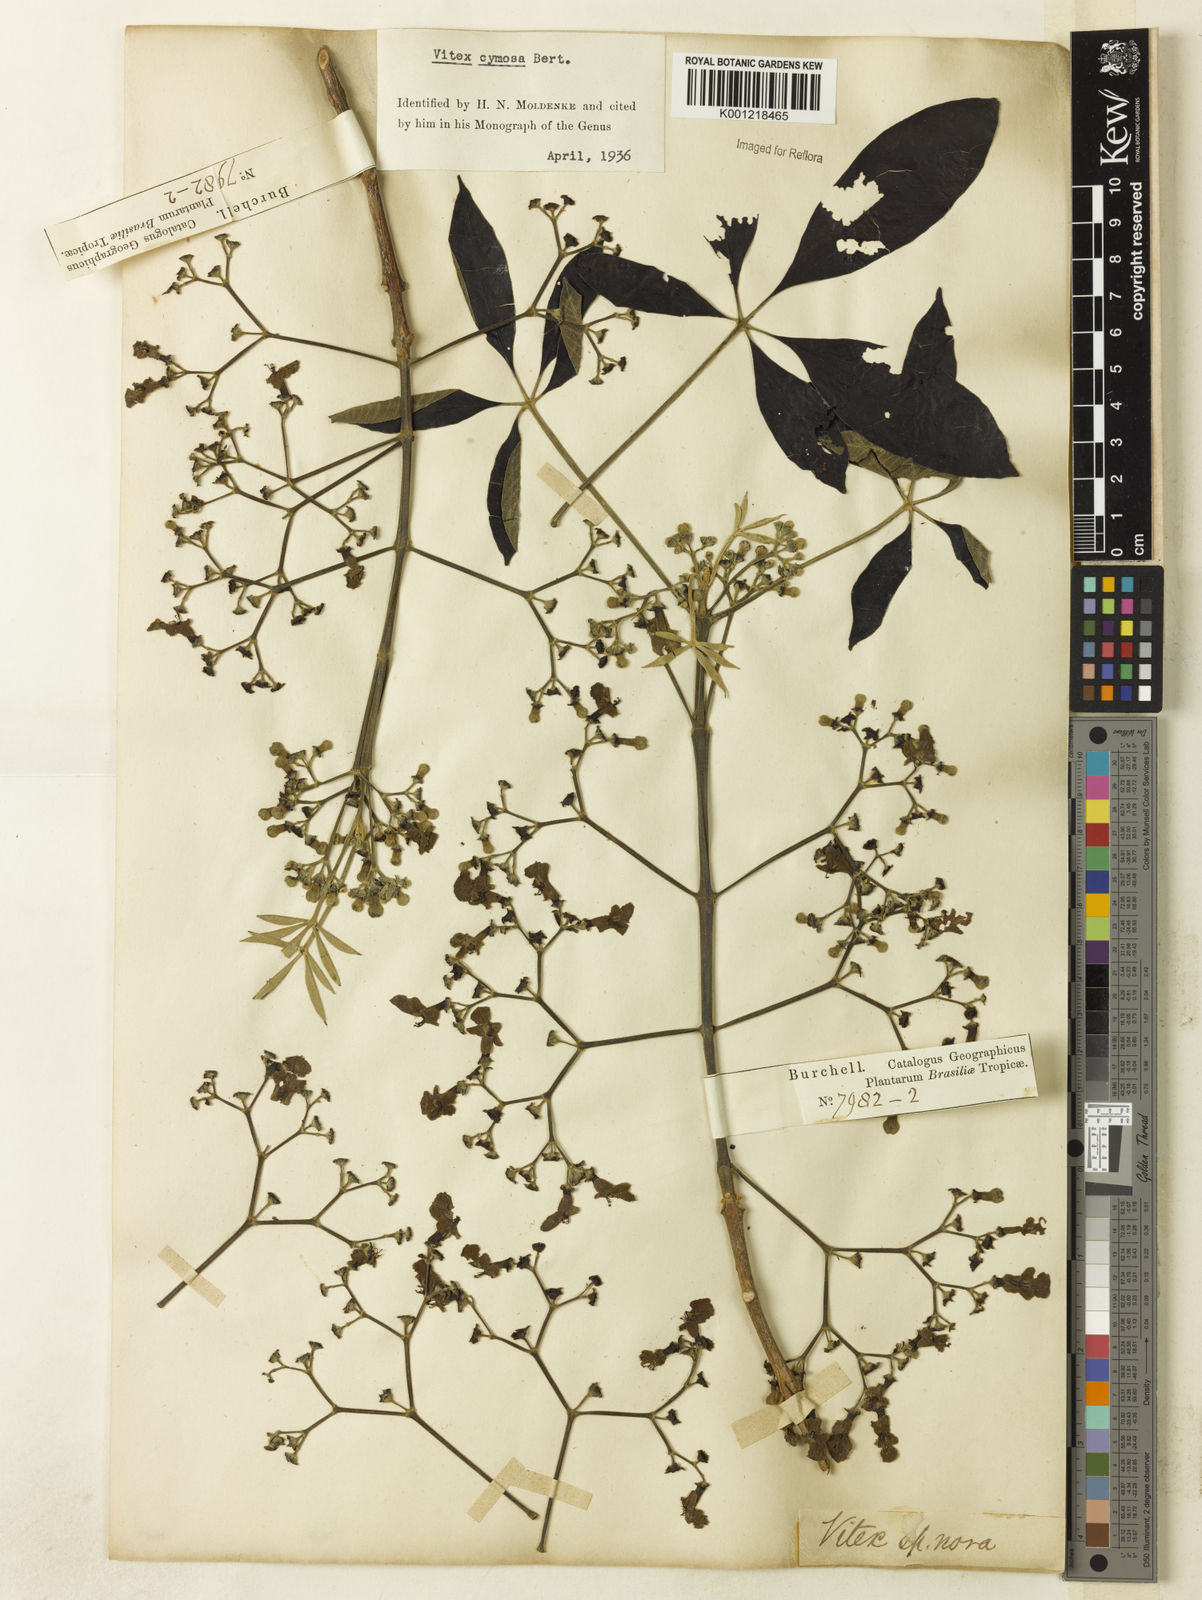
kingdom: Plantae
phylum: Tracheophyta
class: Magnoliopsida
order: Lamiales
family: Lamiaceae
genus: Vitex
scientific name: Vitex cymosa
